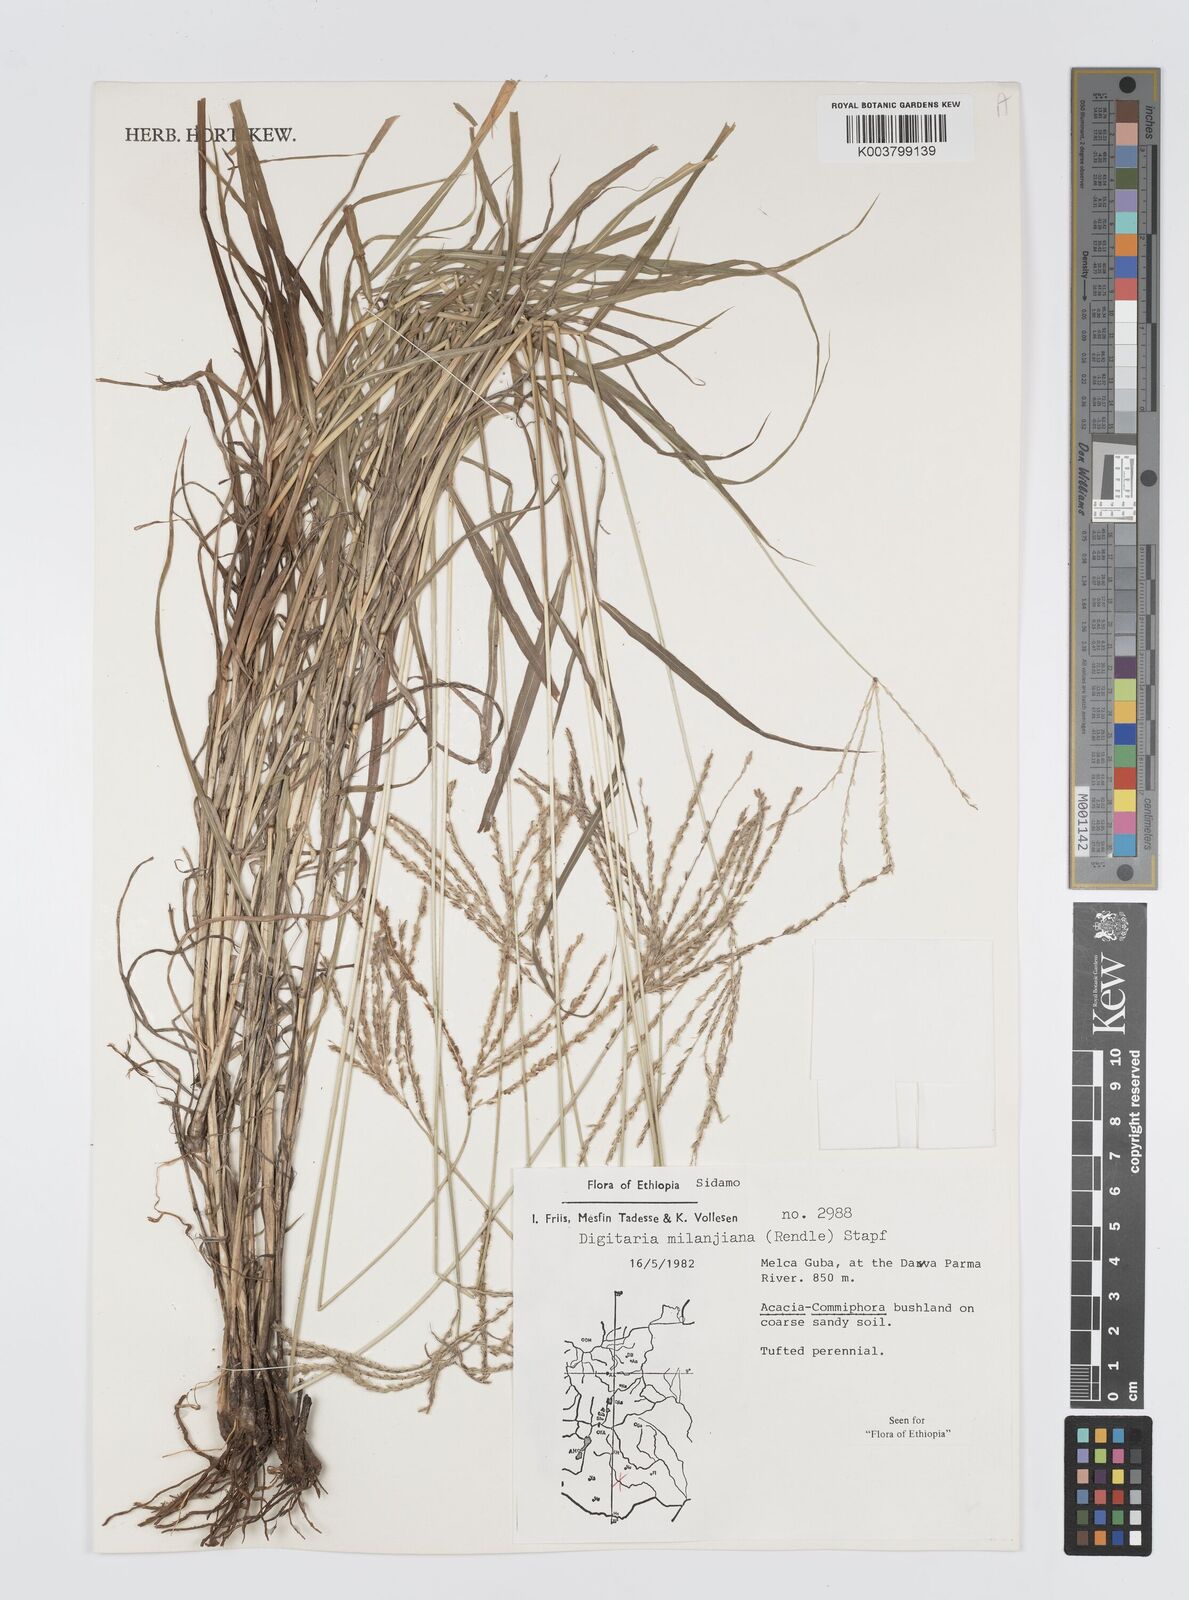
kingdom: Plantae
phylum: Tracheophyta
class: Liliopsida
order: Poales
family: Poaceae
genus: Digitaria
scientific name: Digitaria milanjiana
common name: Madagascar crabgrass
